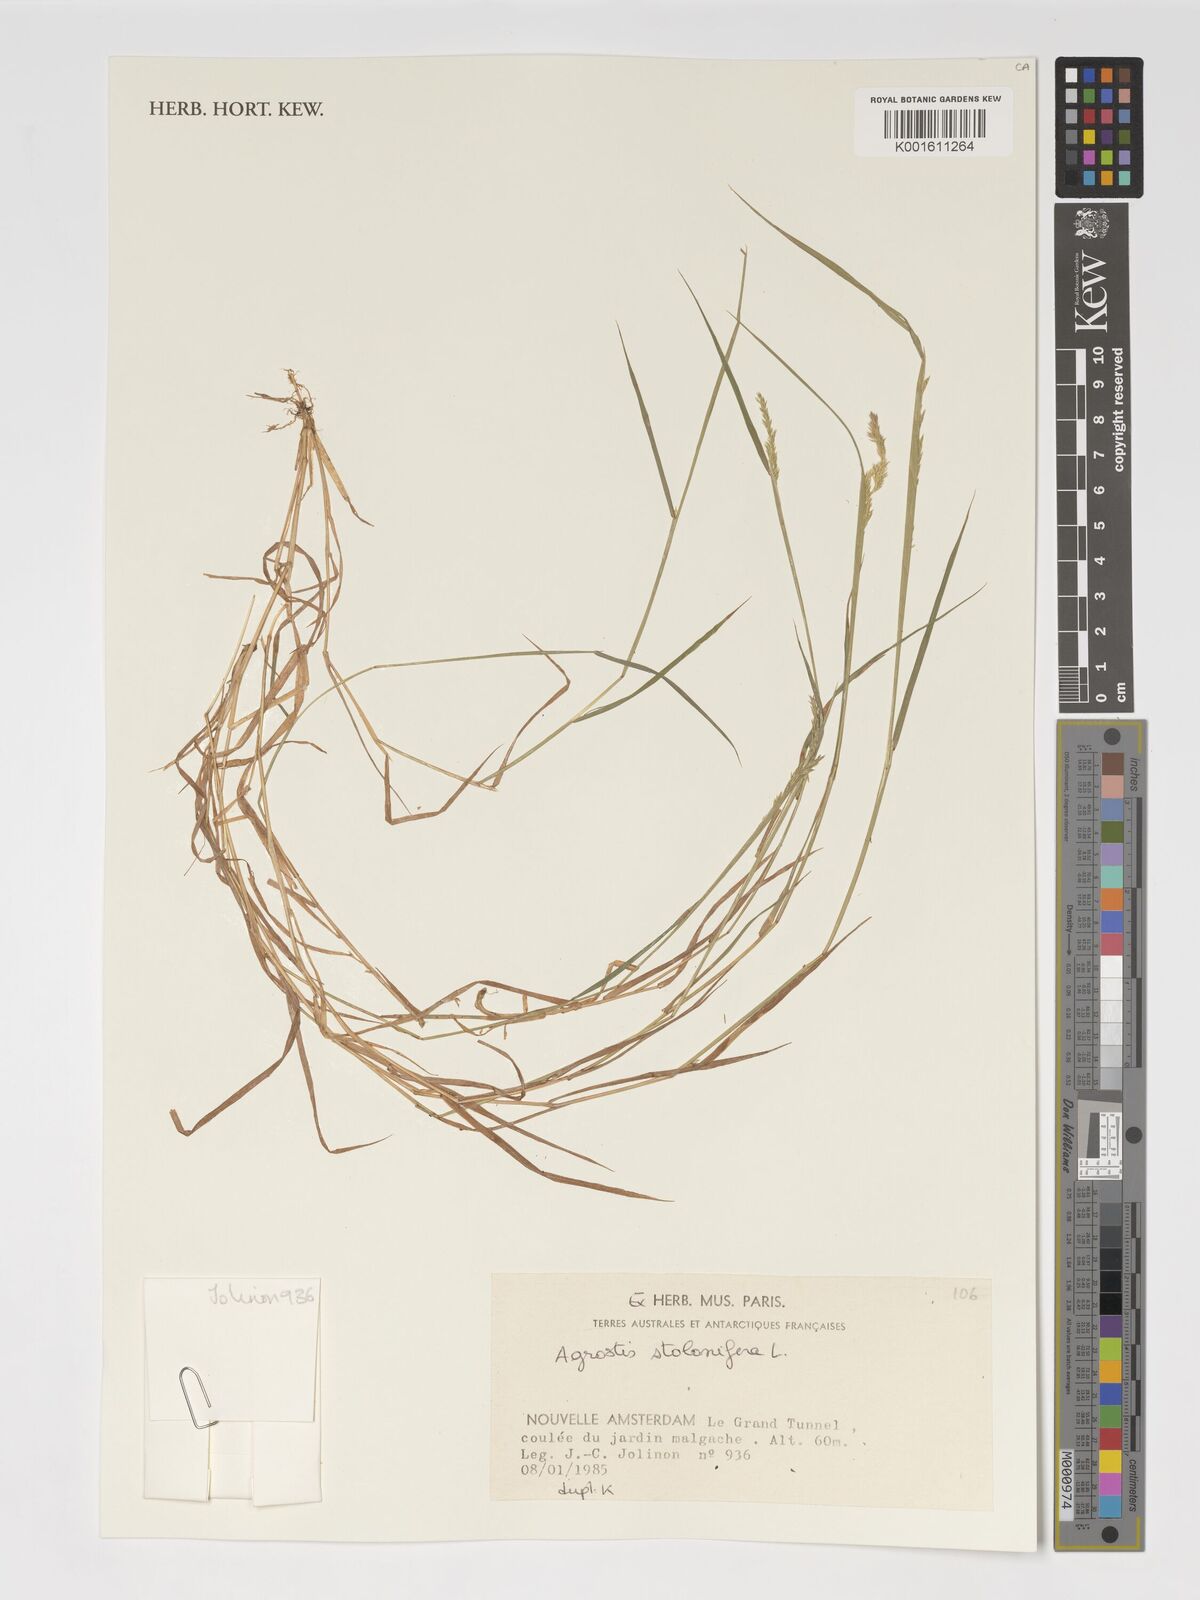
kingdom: Plantae
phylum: Tracheophyta
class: Liliopsida
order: Poales
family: Poaceae
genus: Agrostis
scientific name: Agrostis stolonifera
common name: Creeping bentgrass
